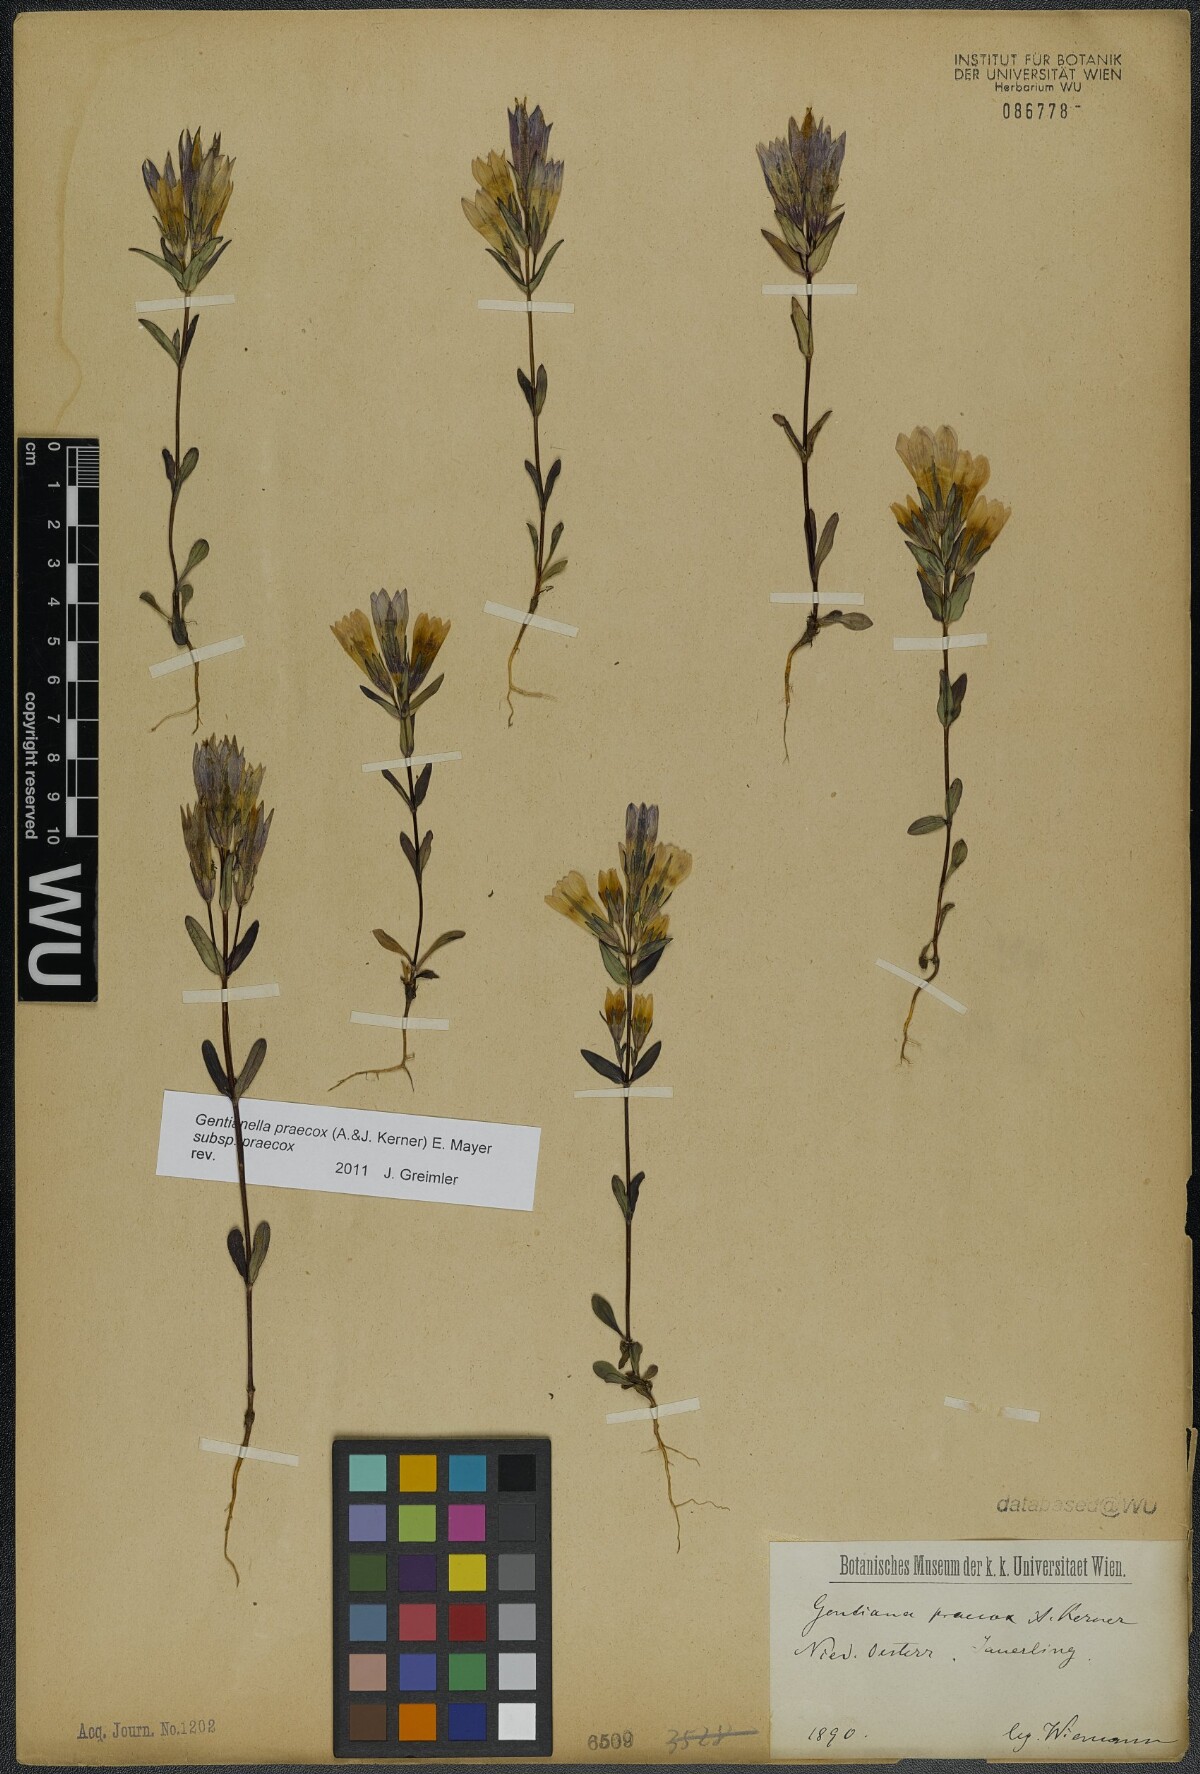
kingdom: Plantae
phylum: Tracheophyta
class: Magnoliopsida
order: Gentianales
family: Gentianaceae
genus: Gentianella
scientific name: Gentianella praecox
